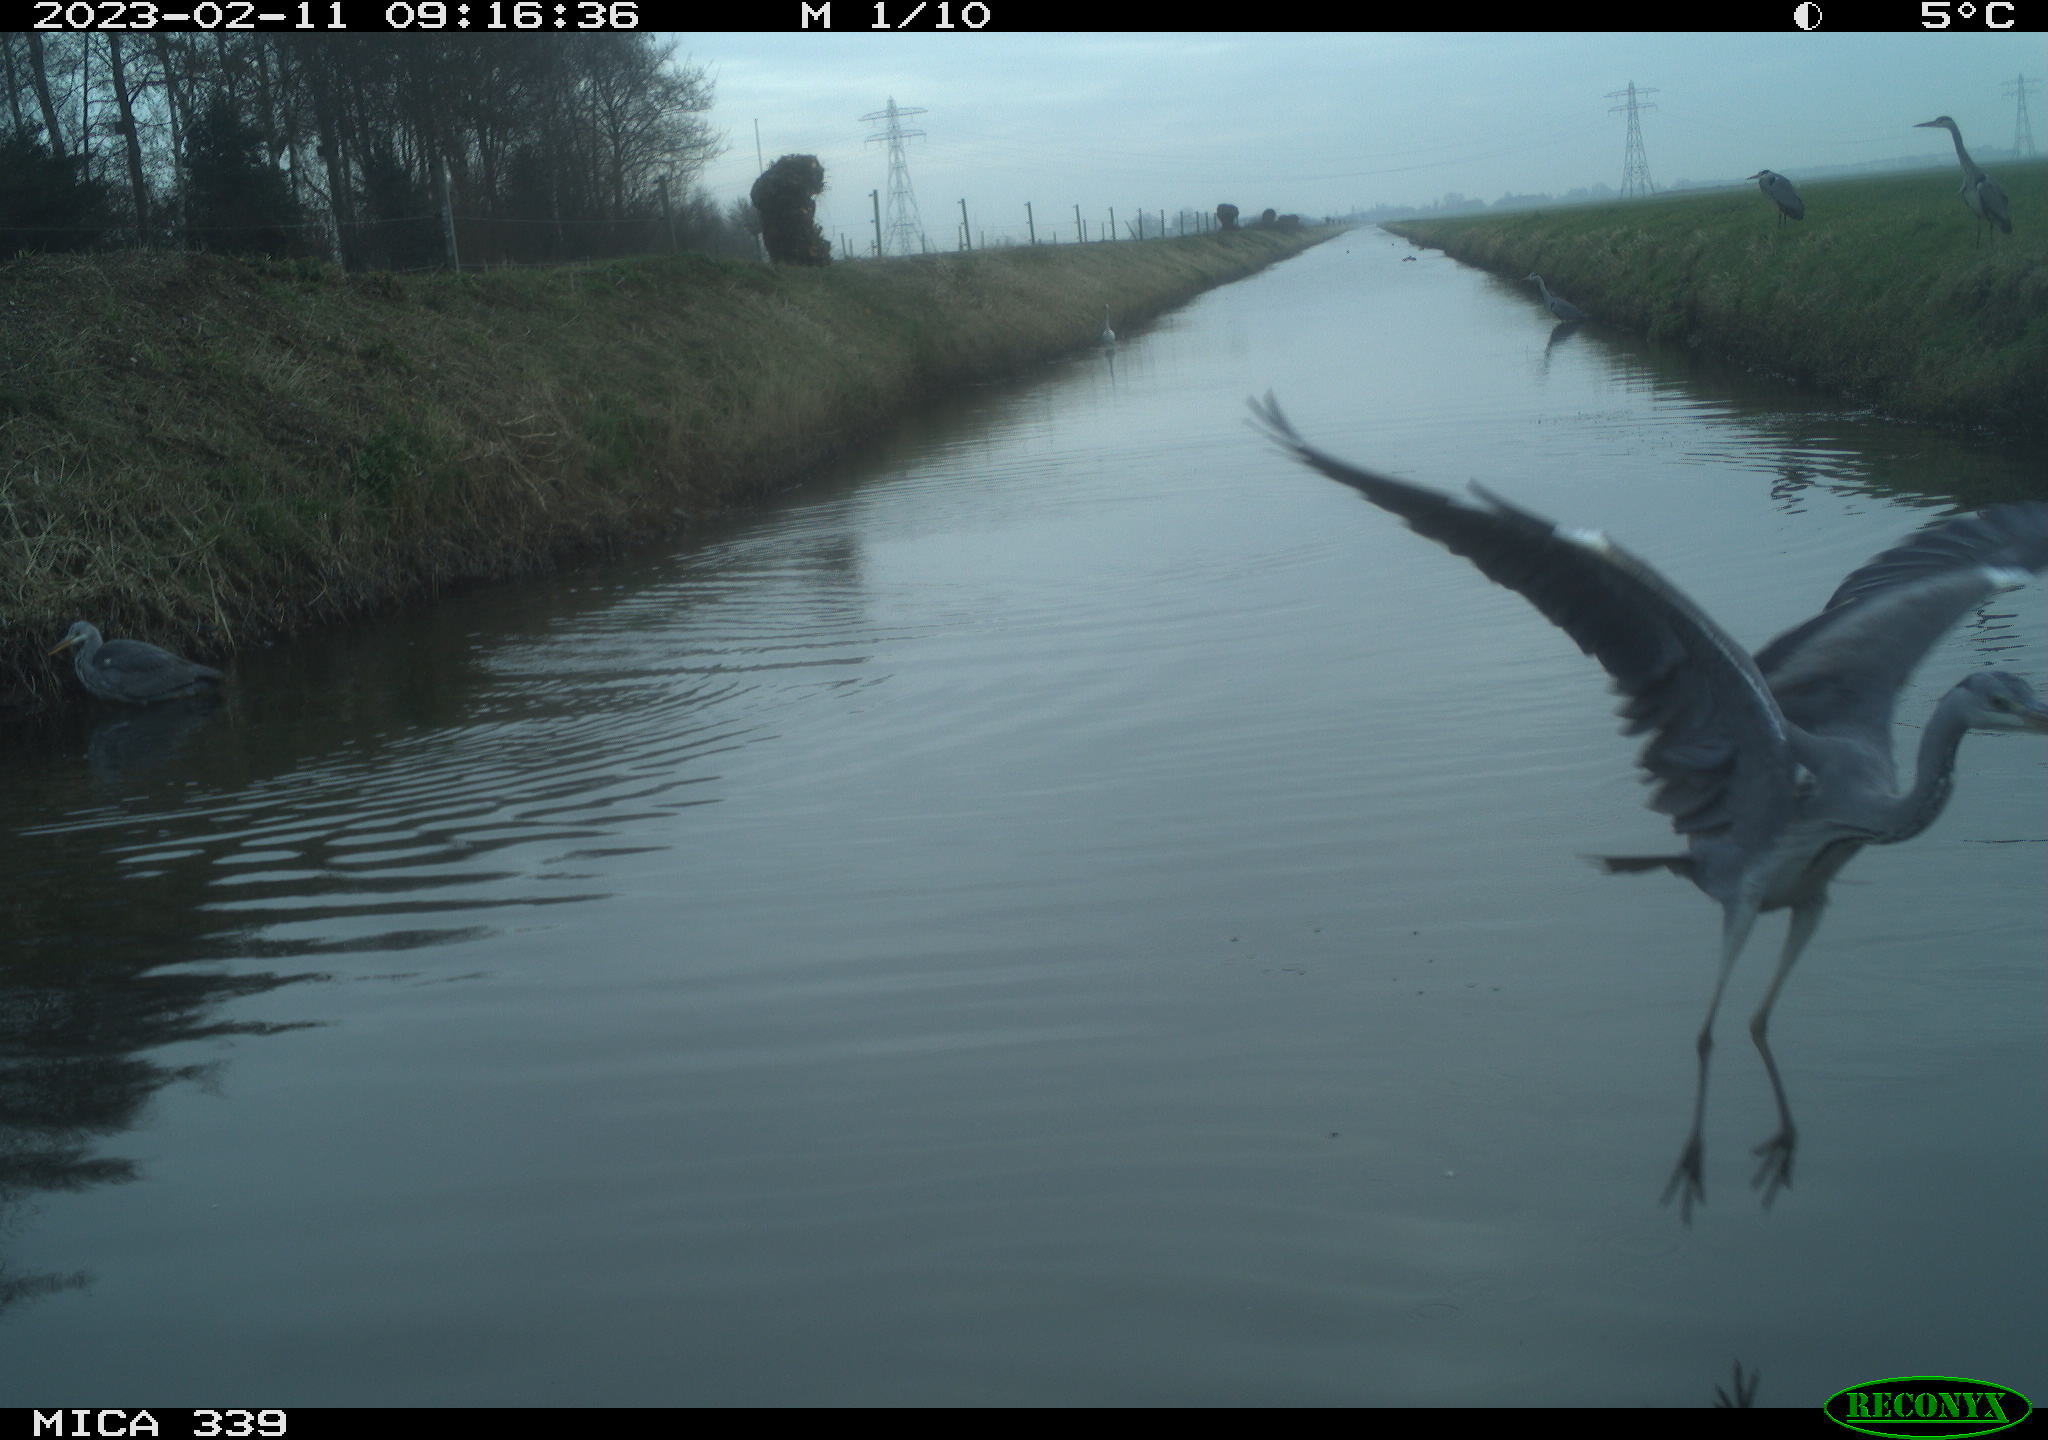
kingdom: Animalia
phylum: Chordata
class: Aves
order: Pelecaniformes
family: Ardeidae
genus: Ardea
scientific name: Ardea cinerea
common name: Grey heron
